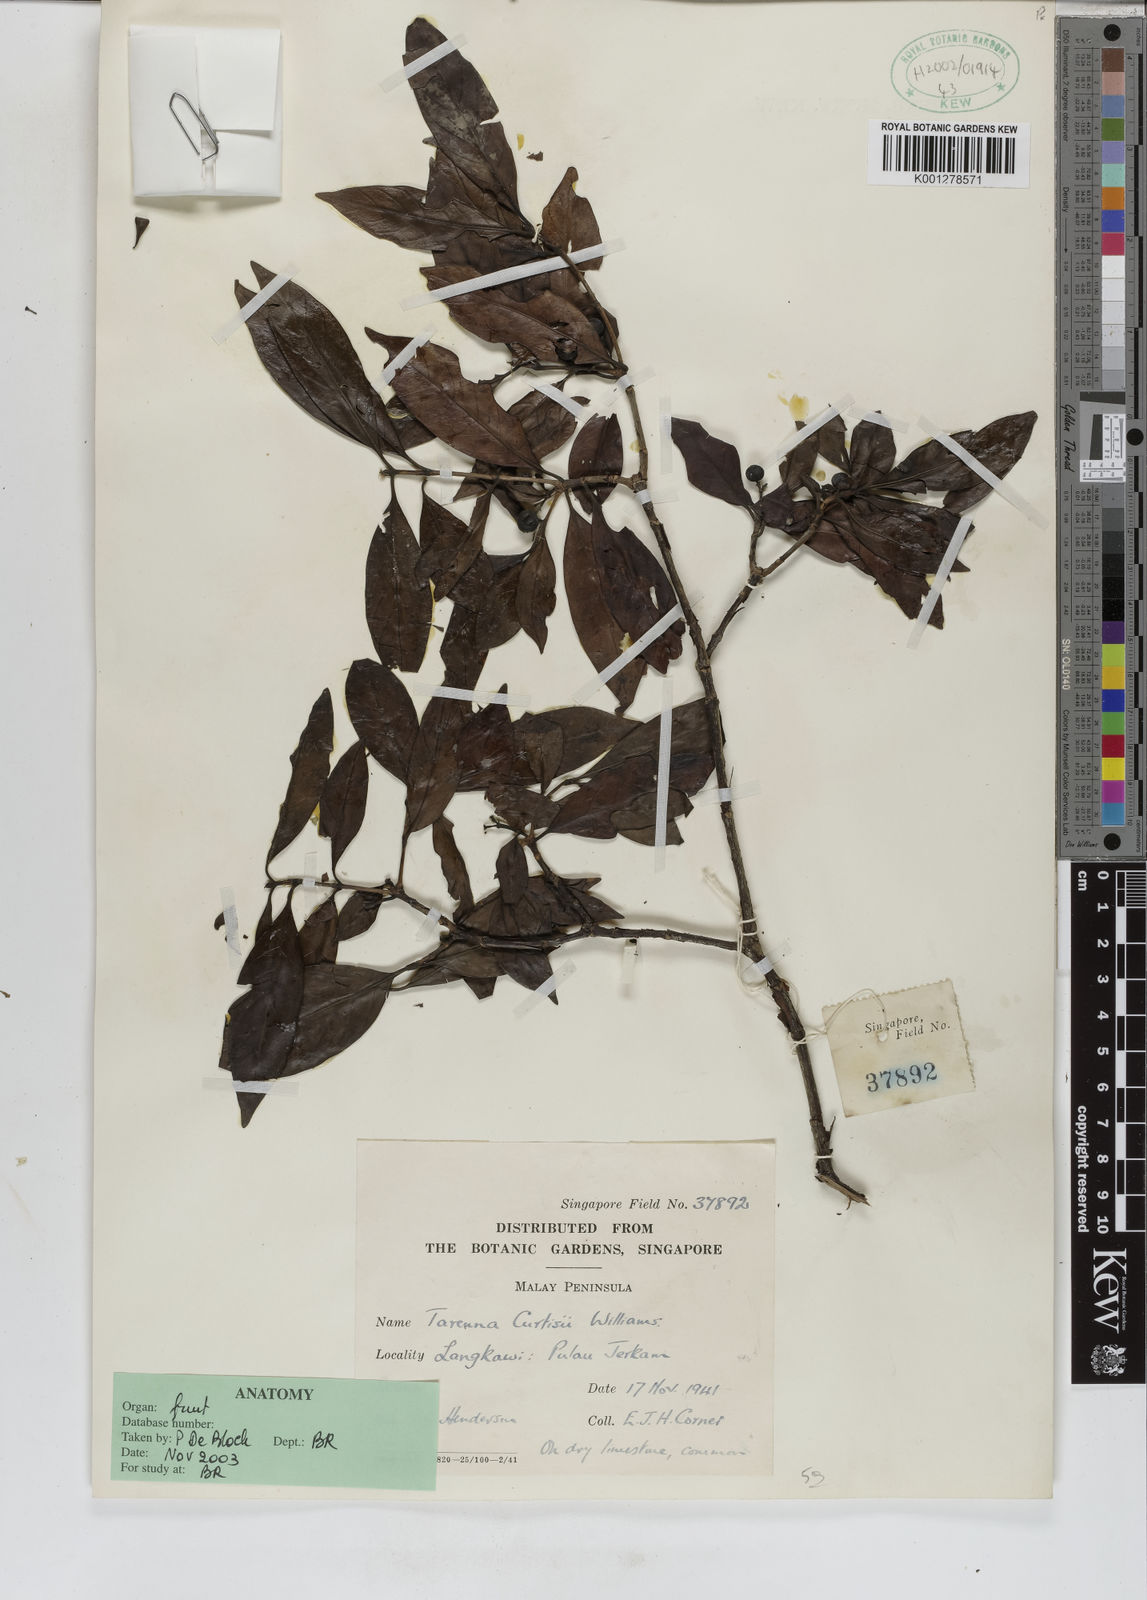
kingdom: Plantae
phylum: Tracheophyta
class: Magnoliopsida
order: Gentianales
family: Rubiaceae
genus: Tarenna
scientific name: Tarenna curtisii
